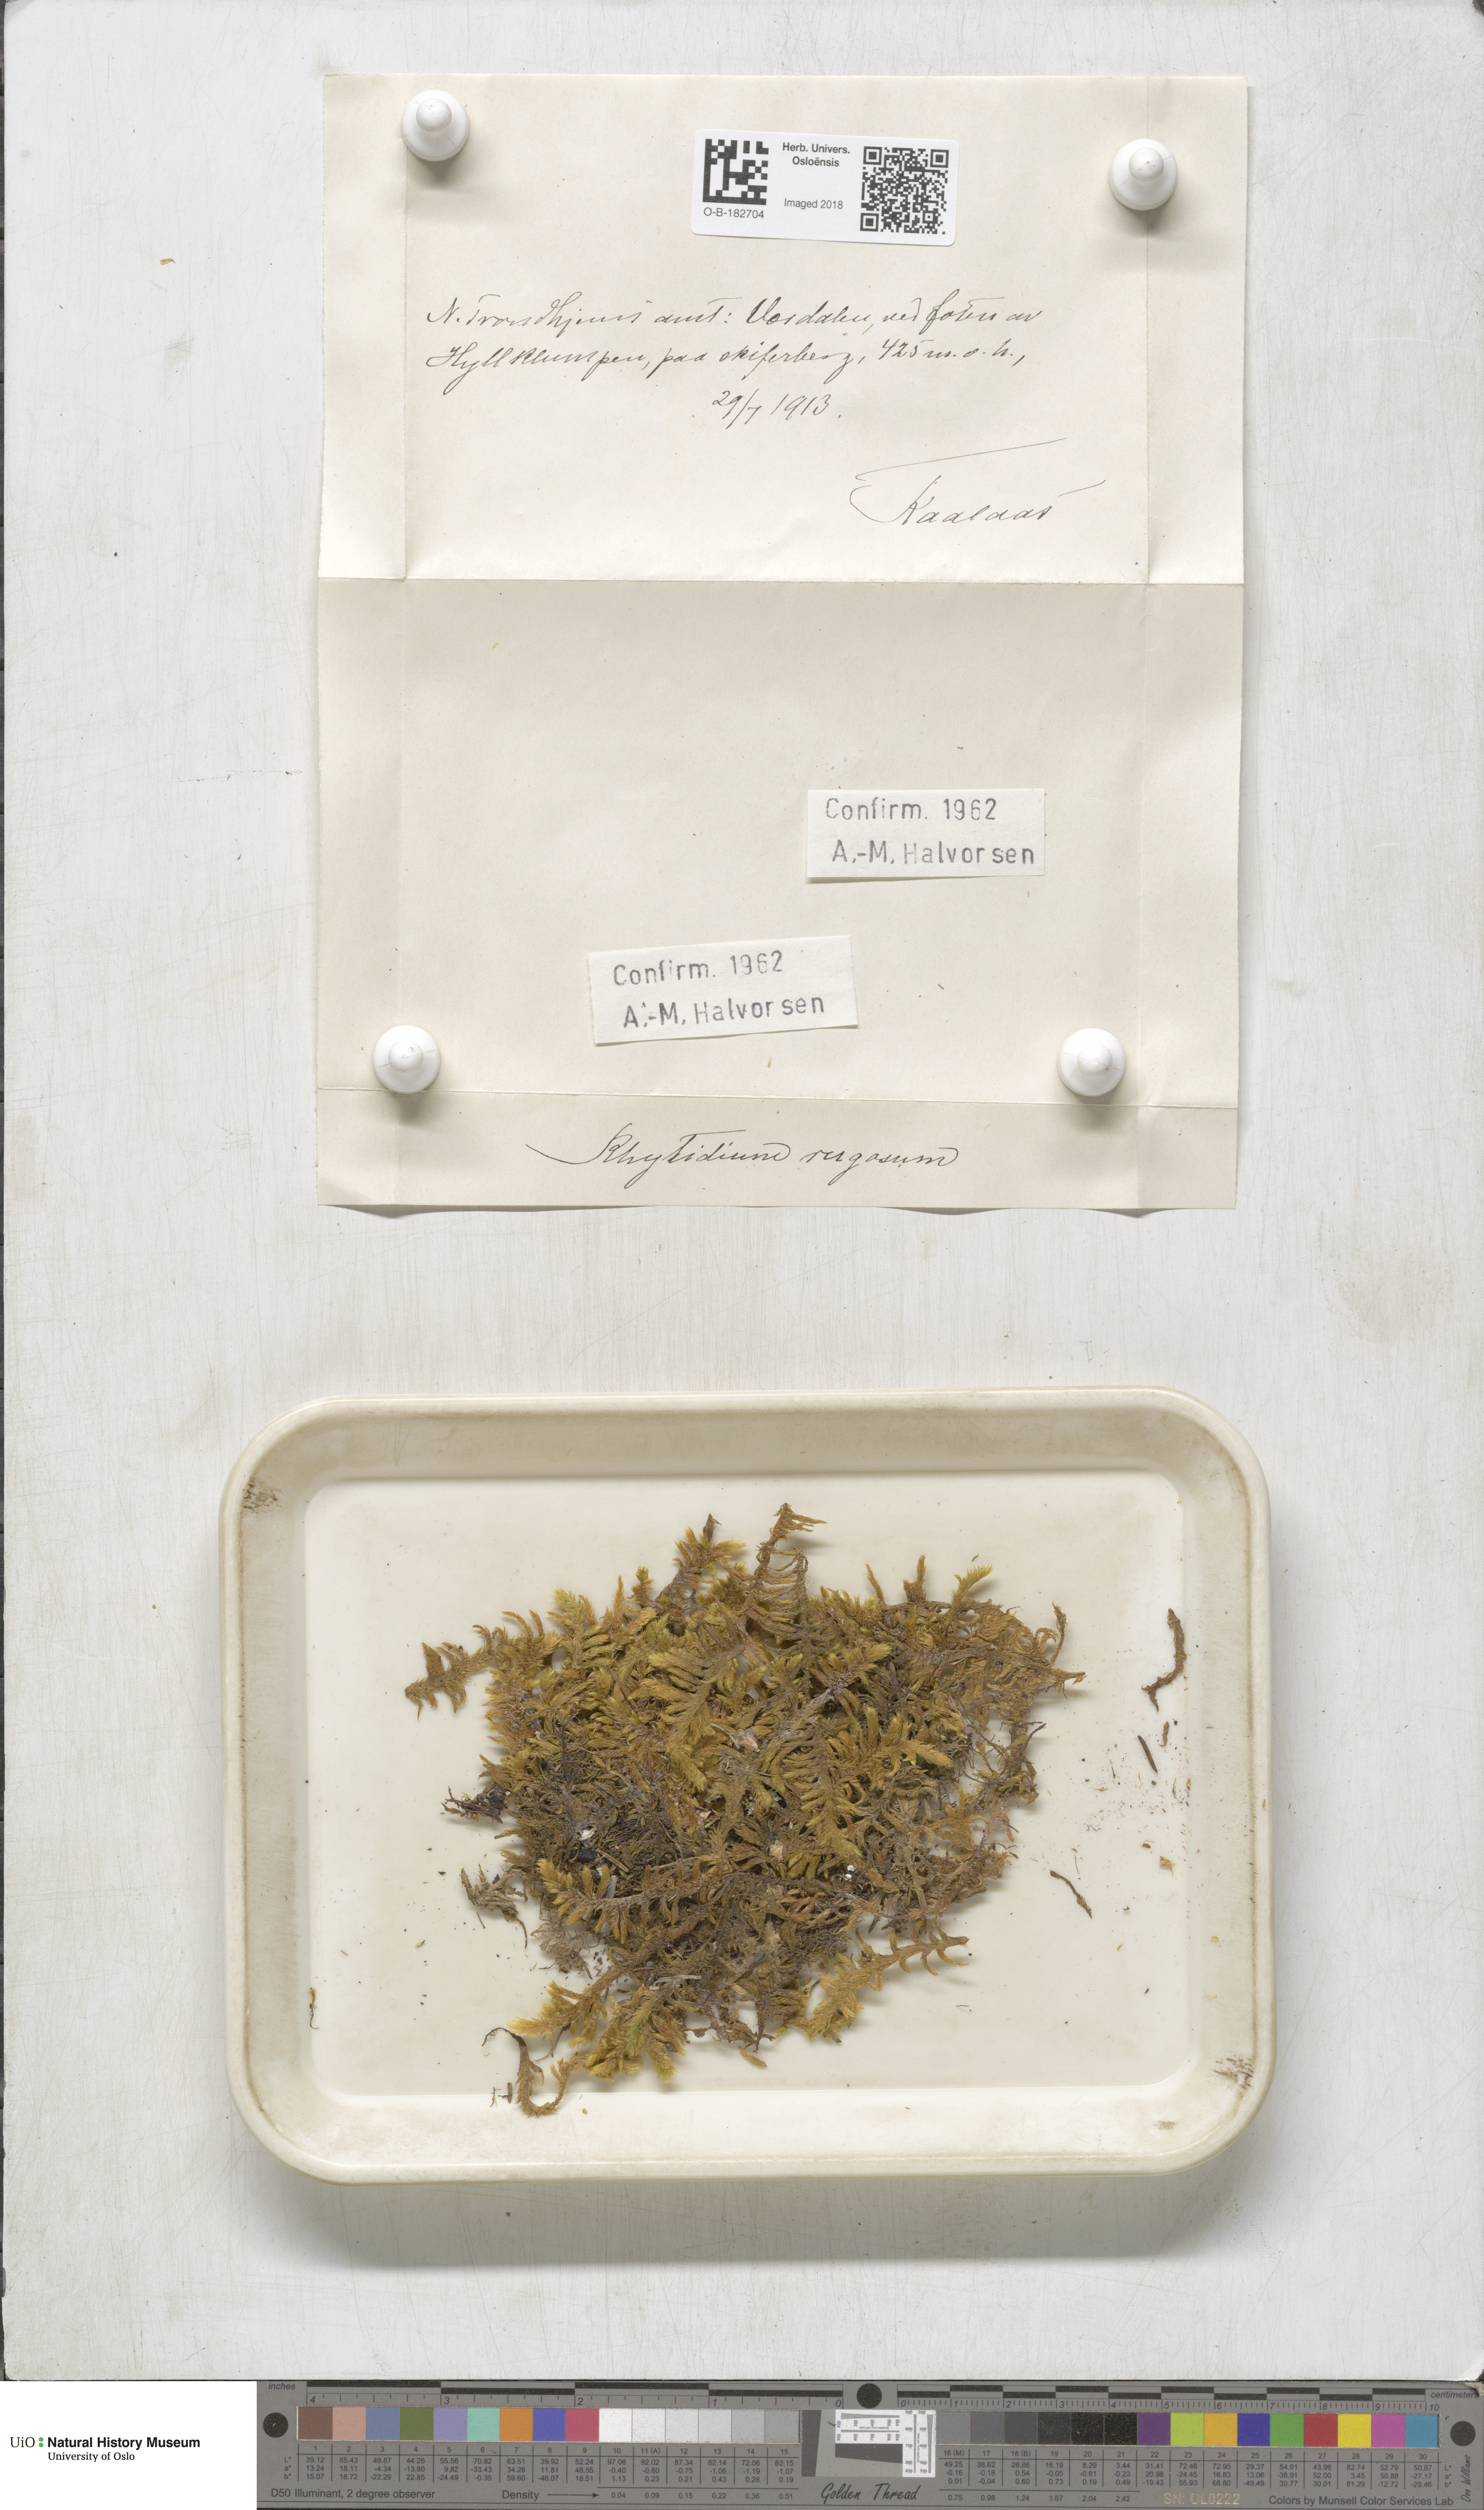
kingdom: Plantae
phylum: Bryophyta
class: Bryopsida
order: Hypnales
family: Rhytidiaceae
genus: Rhytidium
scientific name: Rhytidium rugosum
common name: Wrinkle-leaved moss
